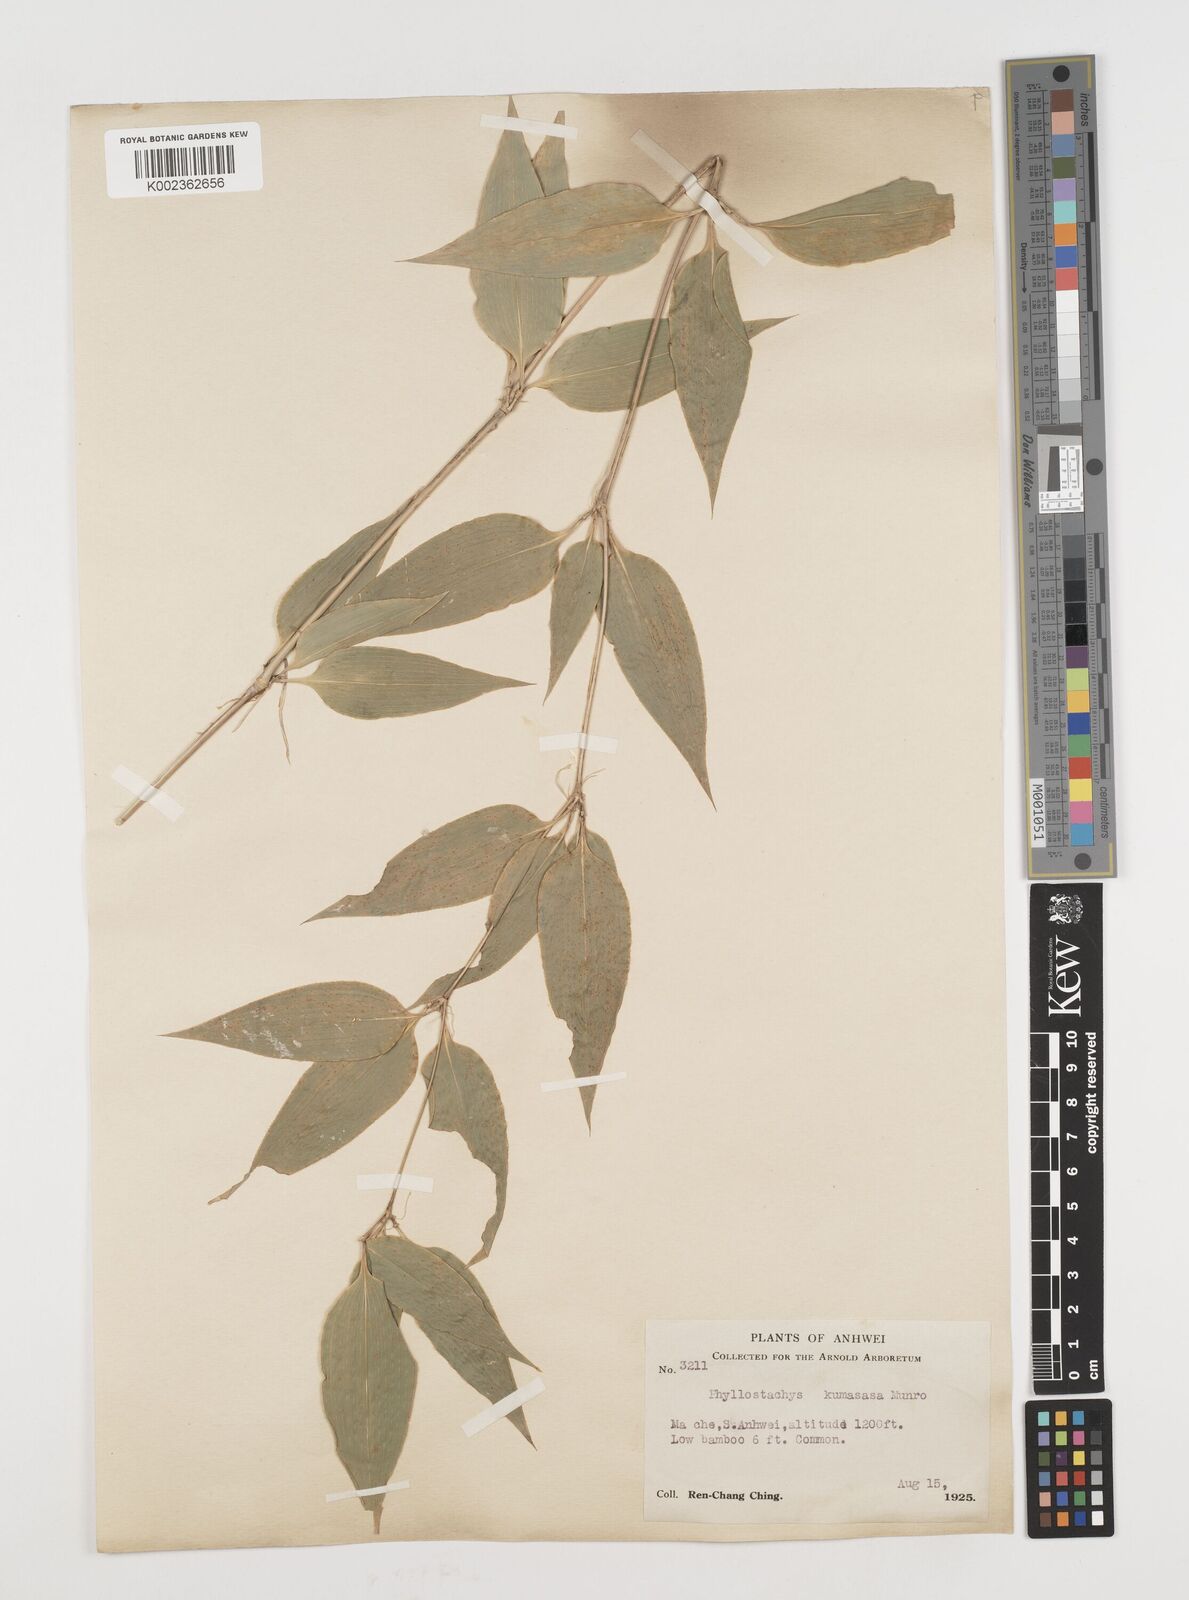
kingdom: Plantae
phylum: Tracheophyta
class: Liliopsida
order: Poales
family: Poaceae
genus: Shibataea
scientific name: Shibataea kumasasa
